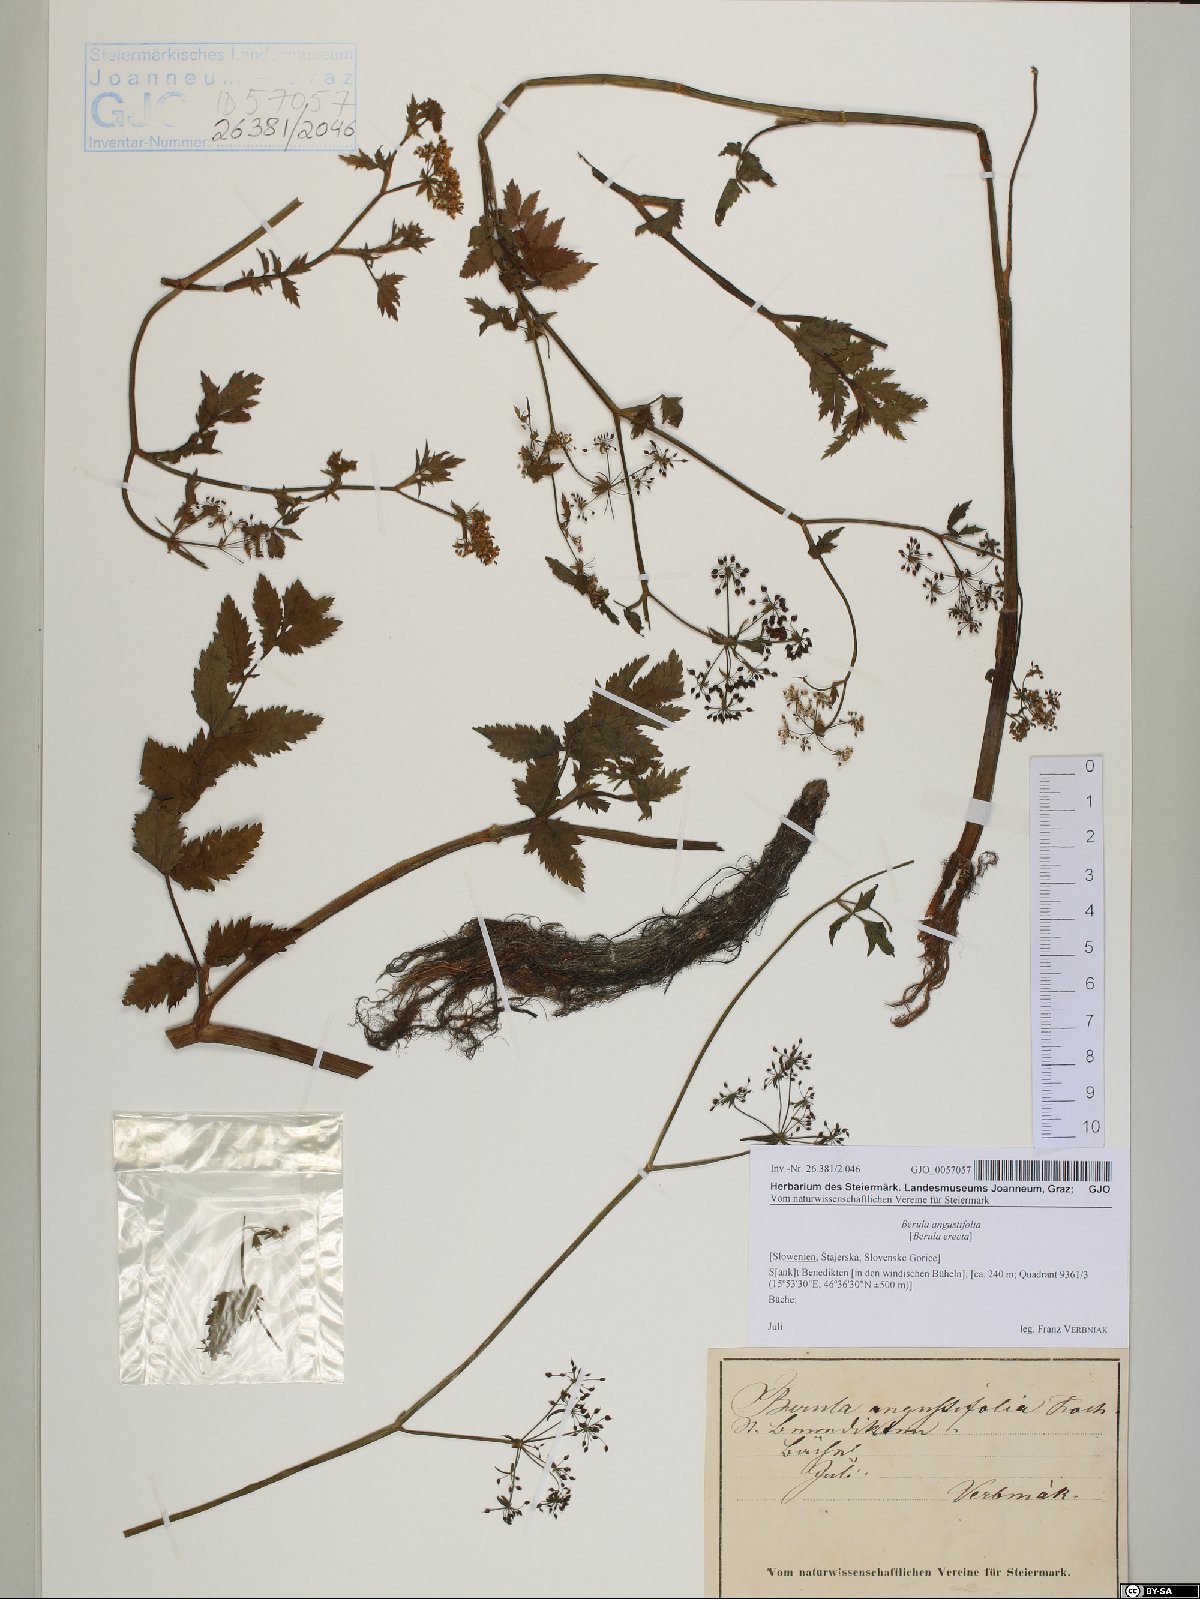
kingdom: Plantae
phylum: Tracheophyta
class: Magnoliopsida
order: Apiales
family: Apiaceae
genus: Berula
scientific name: Berula erecta
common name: Lesser water-parsnip
